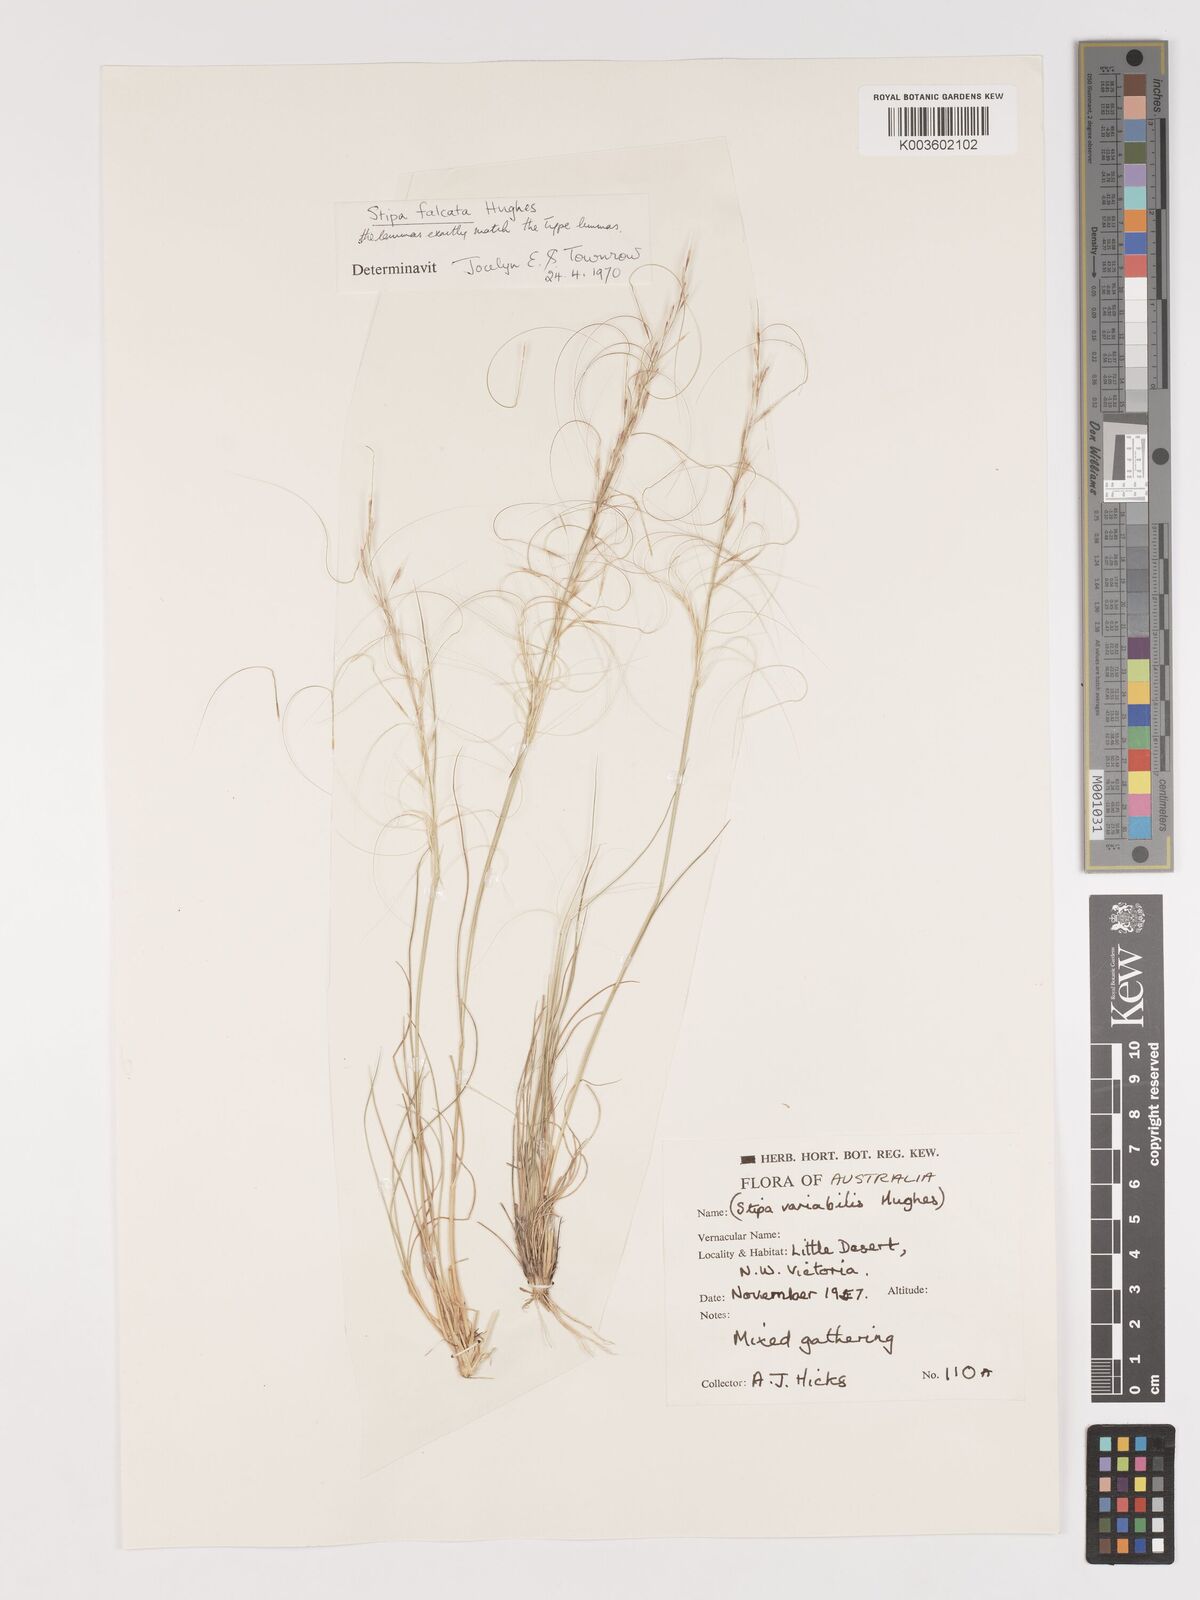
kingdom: Plantae
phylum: Tracheophyta
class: Liliopsida
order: Poales
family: Poaceae
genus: Austrostipa
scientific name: Austrostipa scabra
